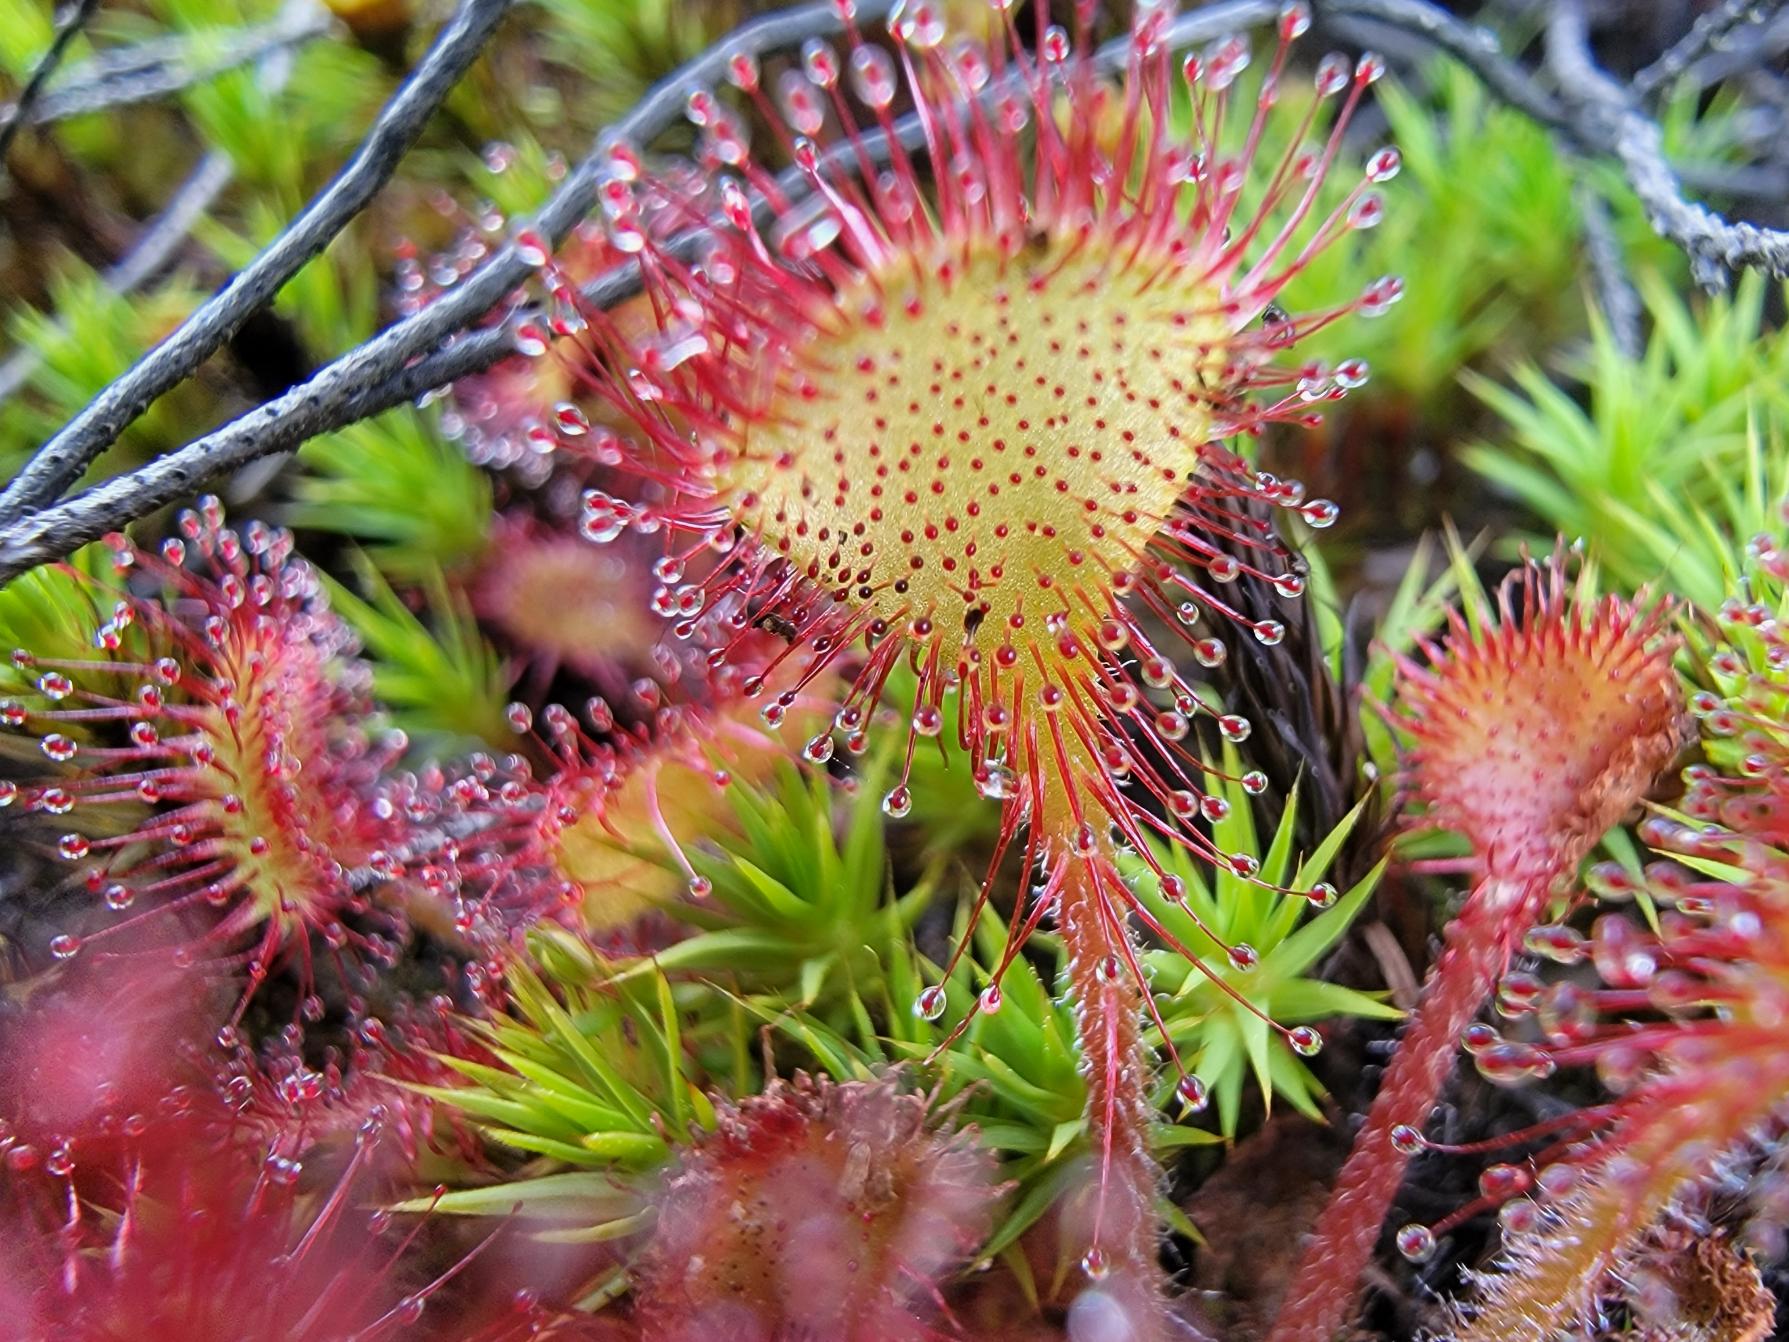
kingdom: Plantae
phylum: Tracheophyta
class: Magnoliopsida
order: Caryophyllales
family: Droseraceae
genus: Drosera
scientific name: Drosera rotundifolia
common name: Rundbladet soldug
